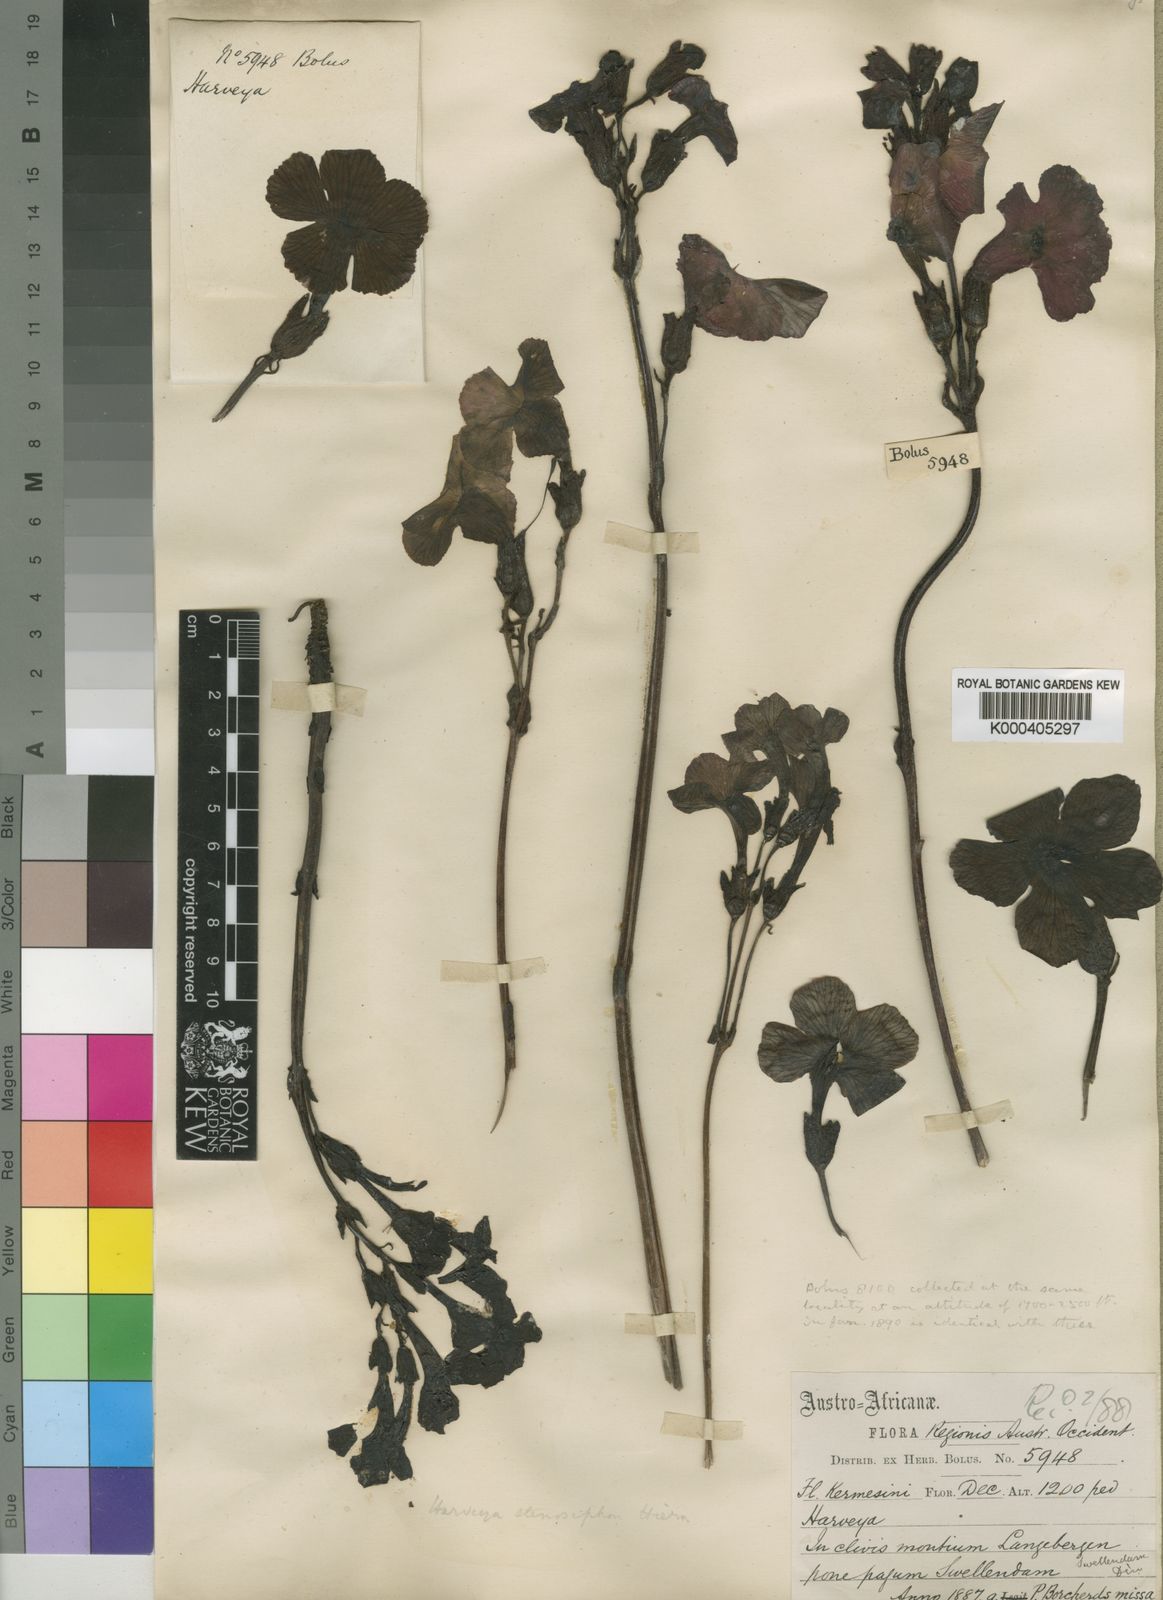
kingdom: Plantae
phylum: Tracheophyta
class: Magnoliopsida
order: Lamiales
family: Orobanchaceae
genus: Harveya
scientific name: Harveya stenosiphon
